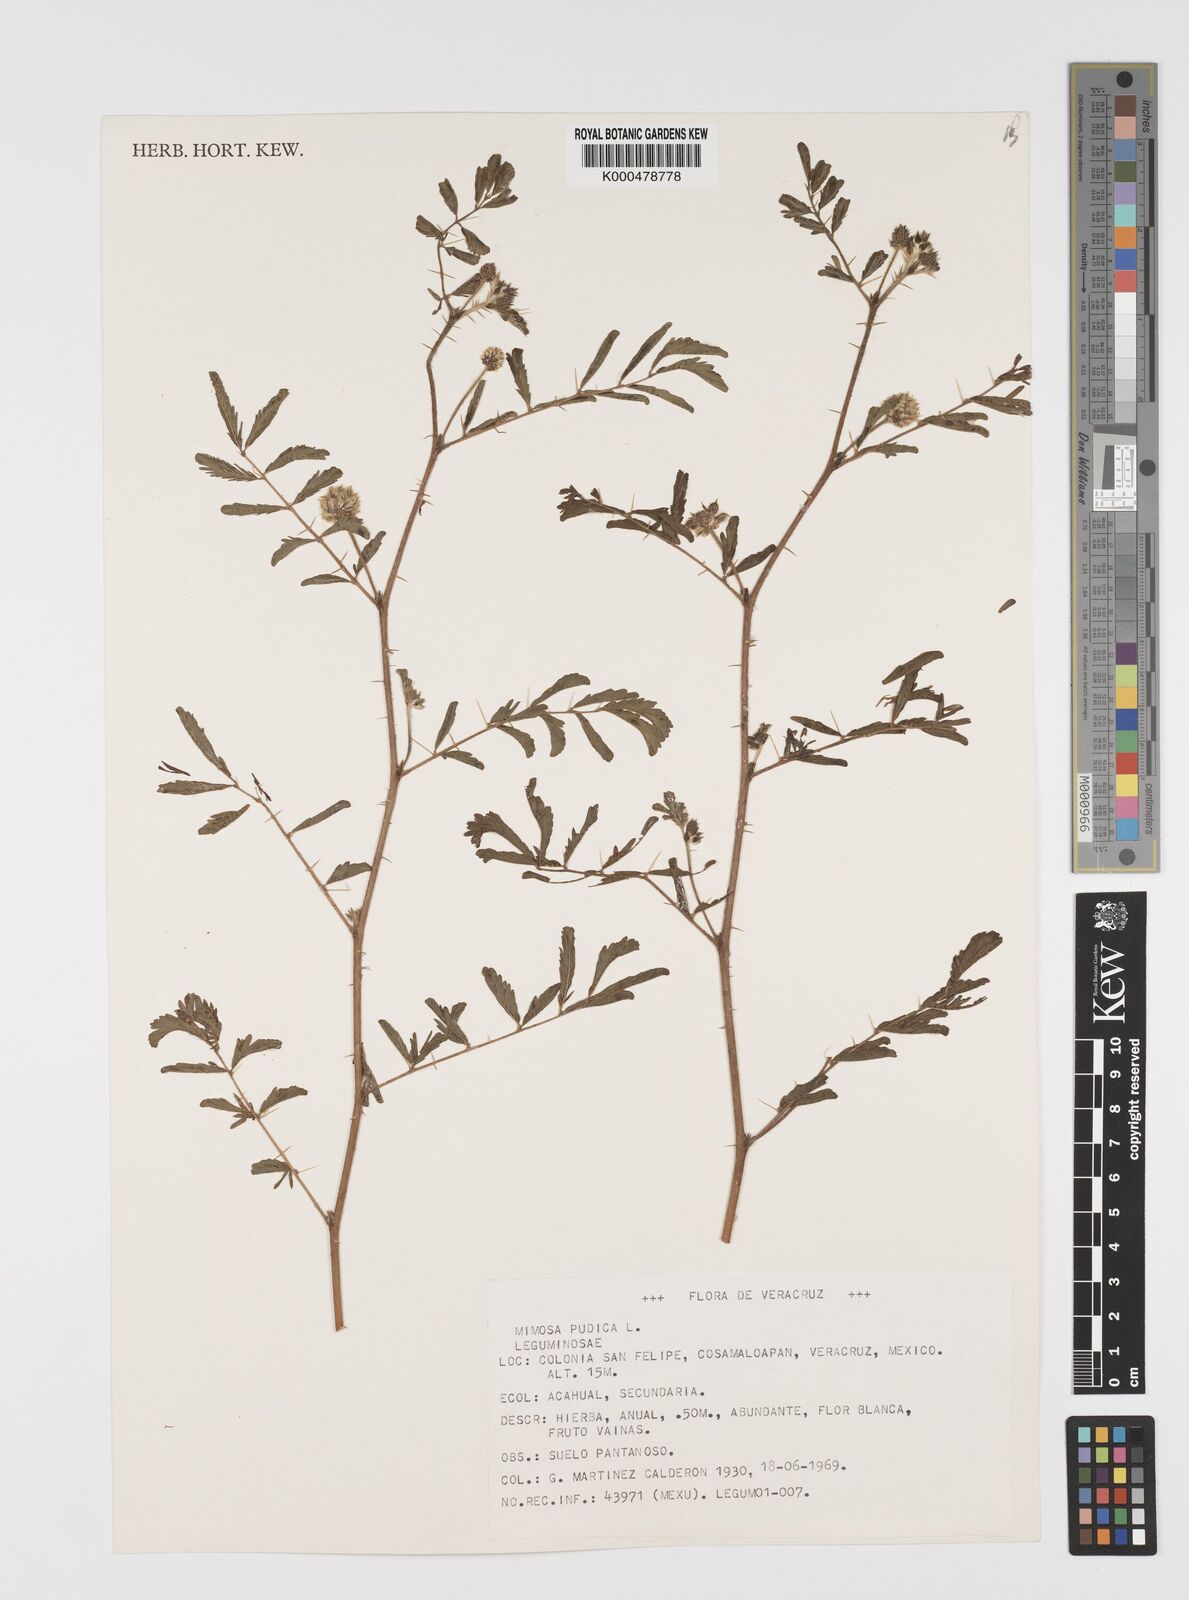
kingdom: Plantae
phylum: Tracheophyta
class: Magnoliopsida
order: Fabales
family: Fabaceae
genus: Mimosa
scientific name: Mimosa pudica
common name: Sensitive plant
